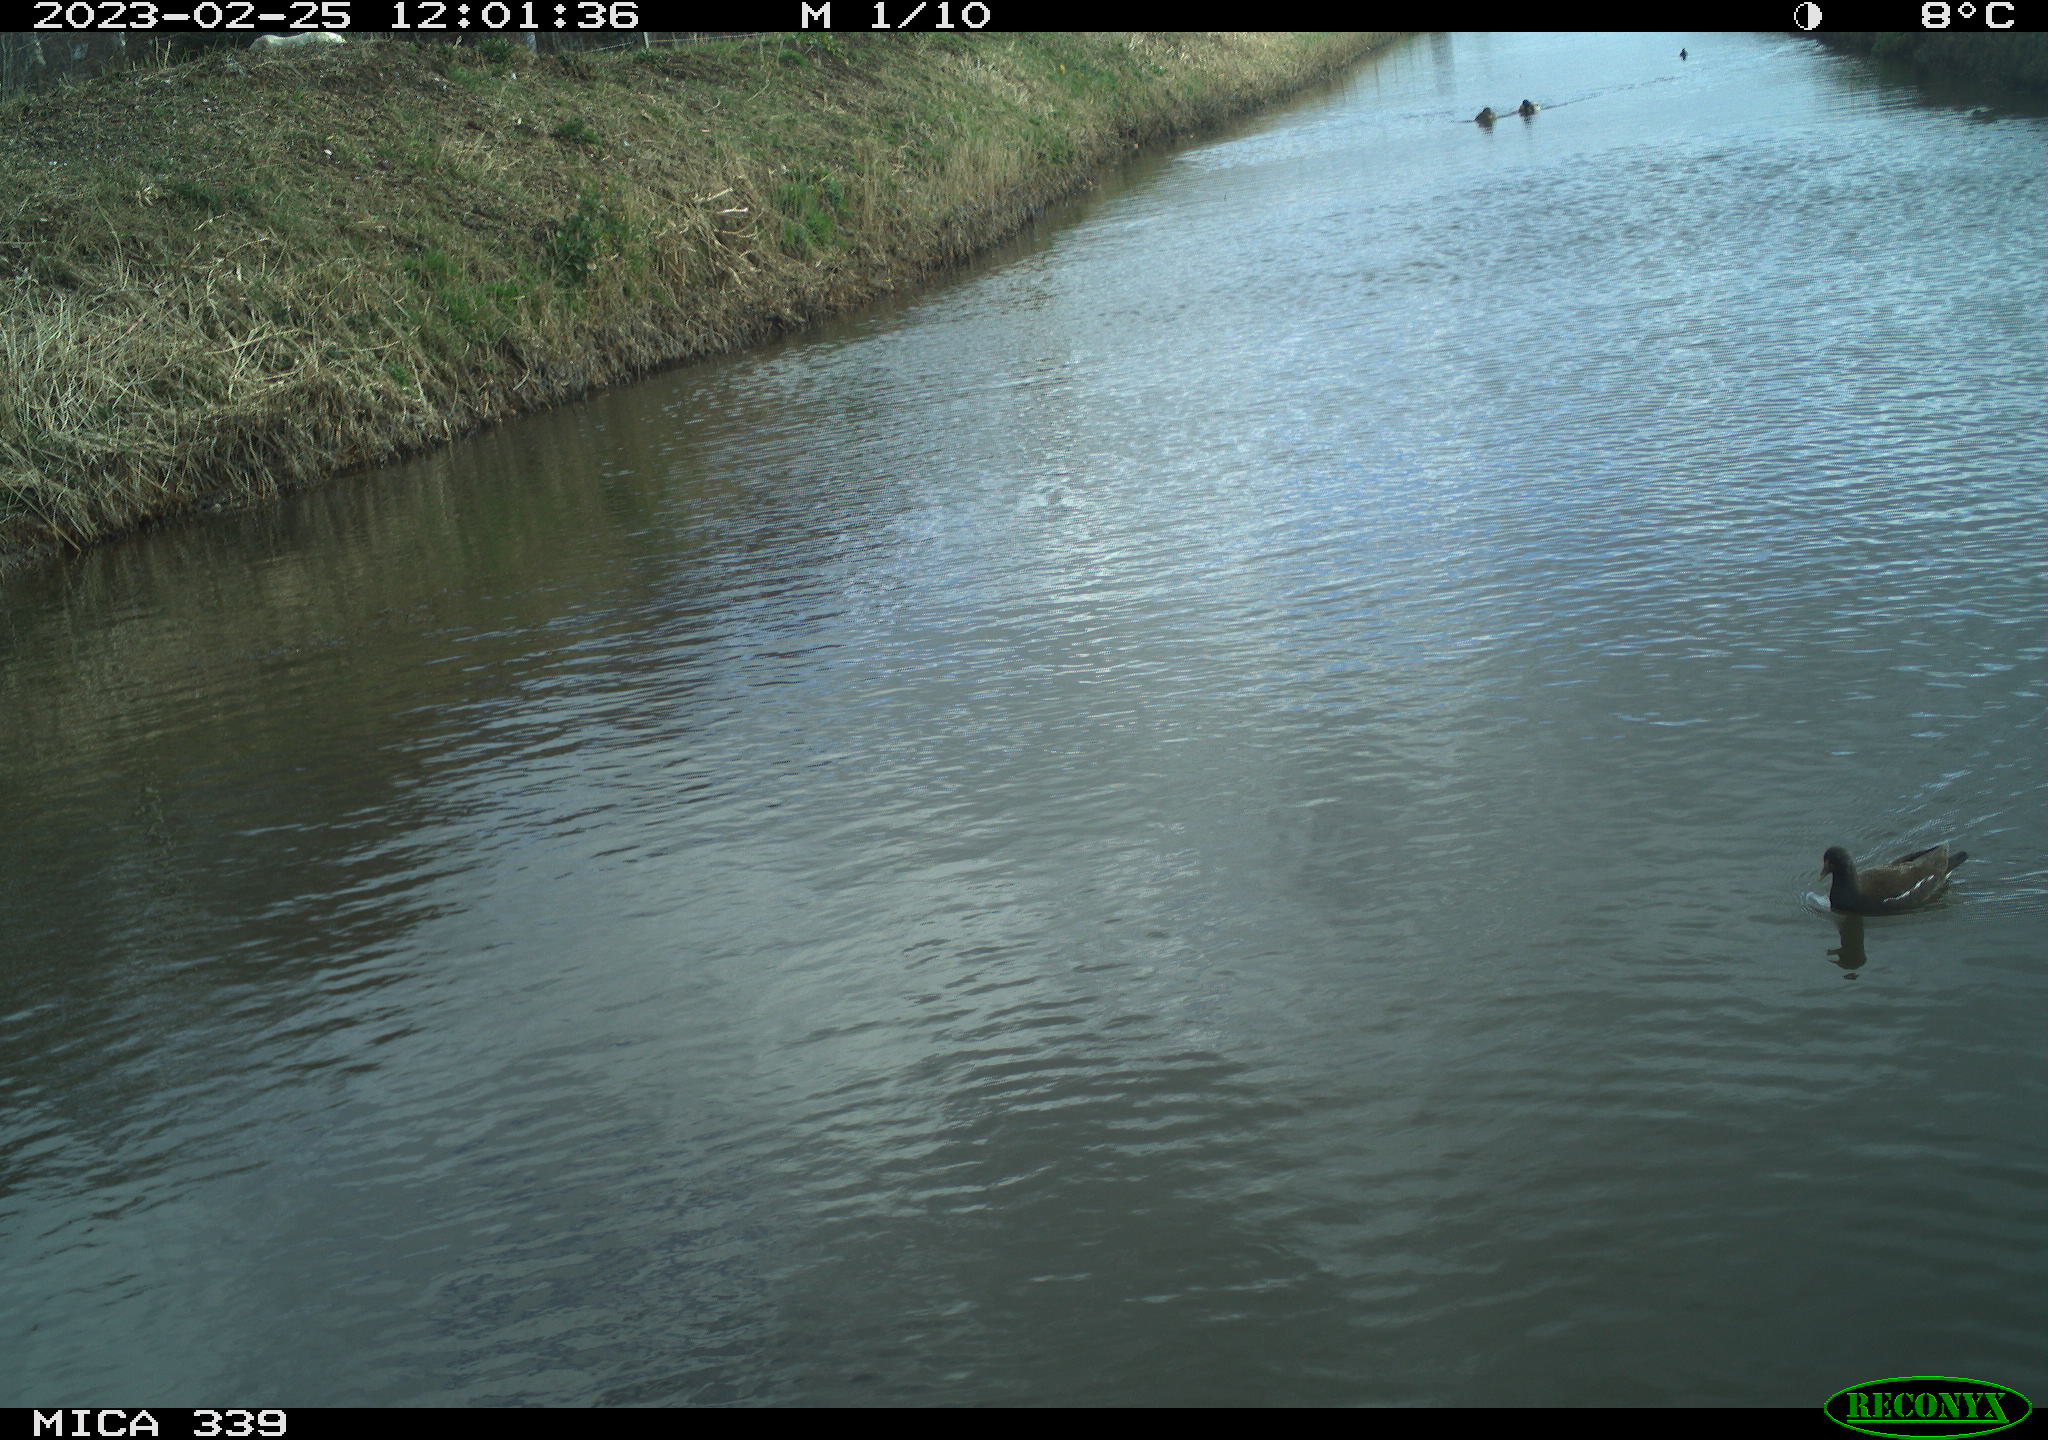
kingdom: Animalia
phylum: Chordata
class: Aves
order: Gruiformes
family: Rallidae
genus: Gallinula
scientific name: Gallinula chloropus
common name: Common moorhen
